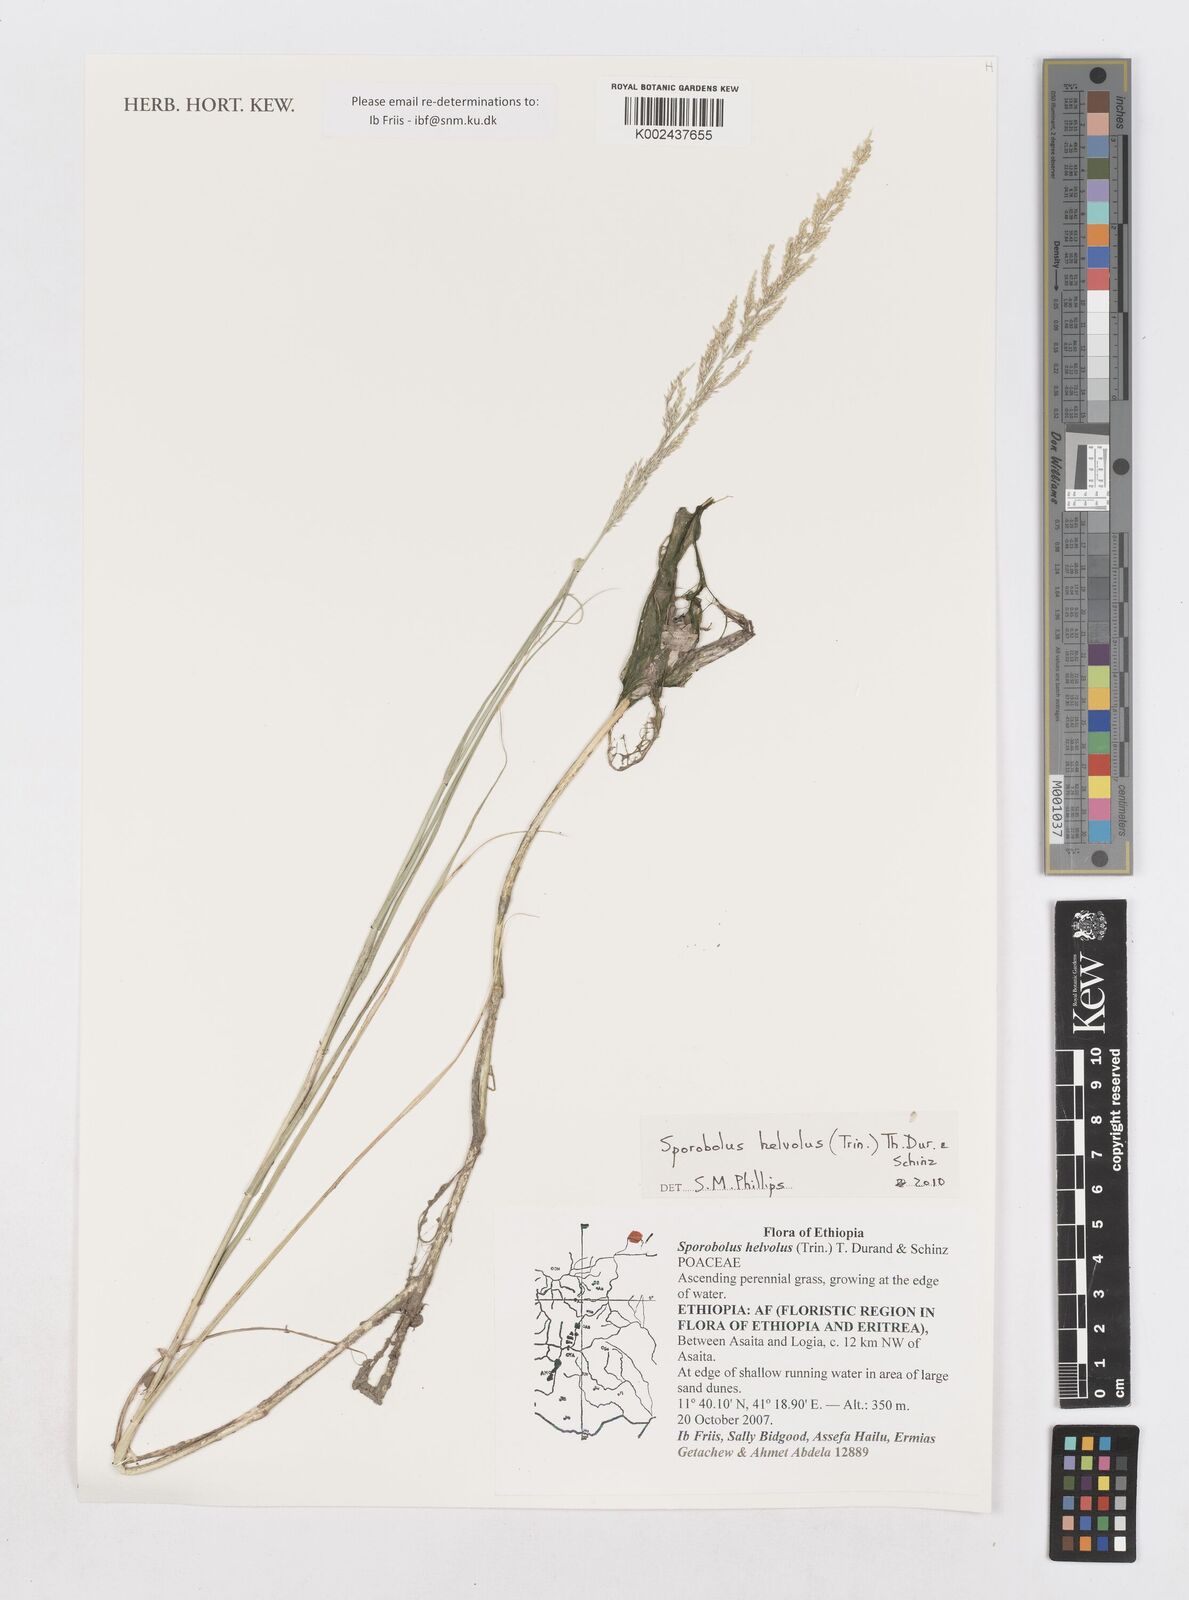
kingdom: Plantae
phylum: Tracheophyta
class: Liliopsida
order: Poales
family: Poaceae
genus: Sporobolus
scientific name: Sporobolus helvolus
